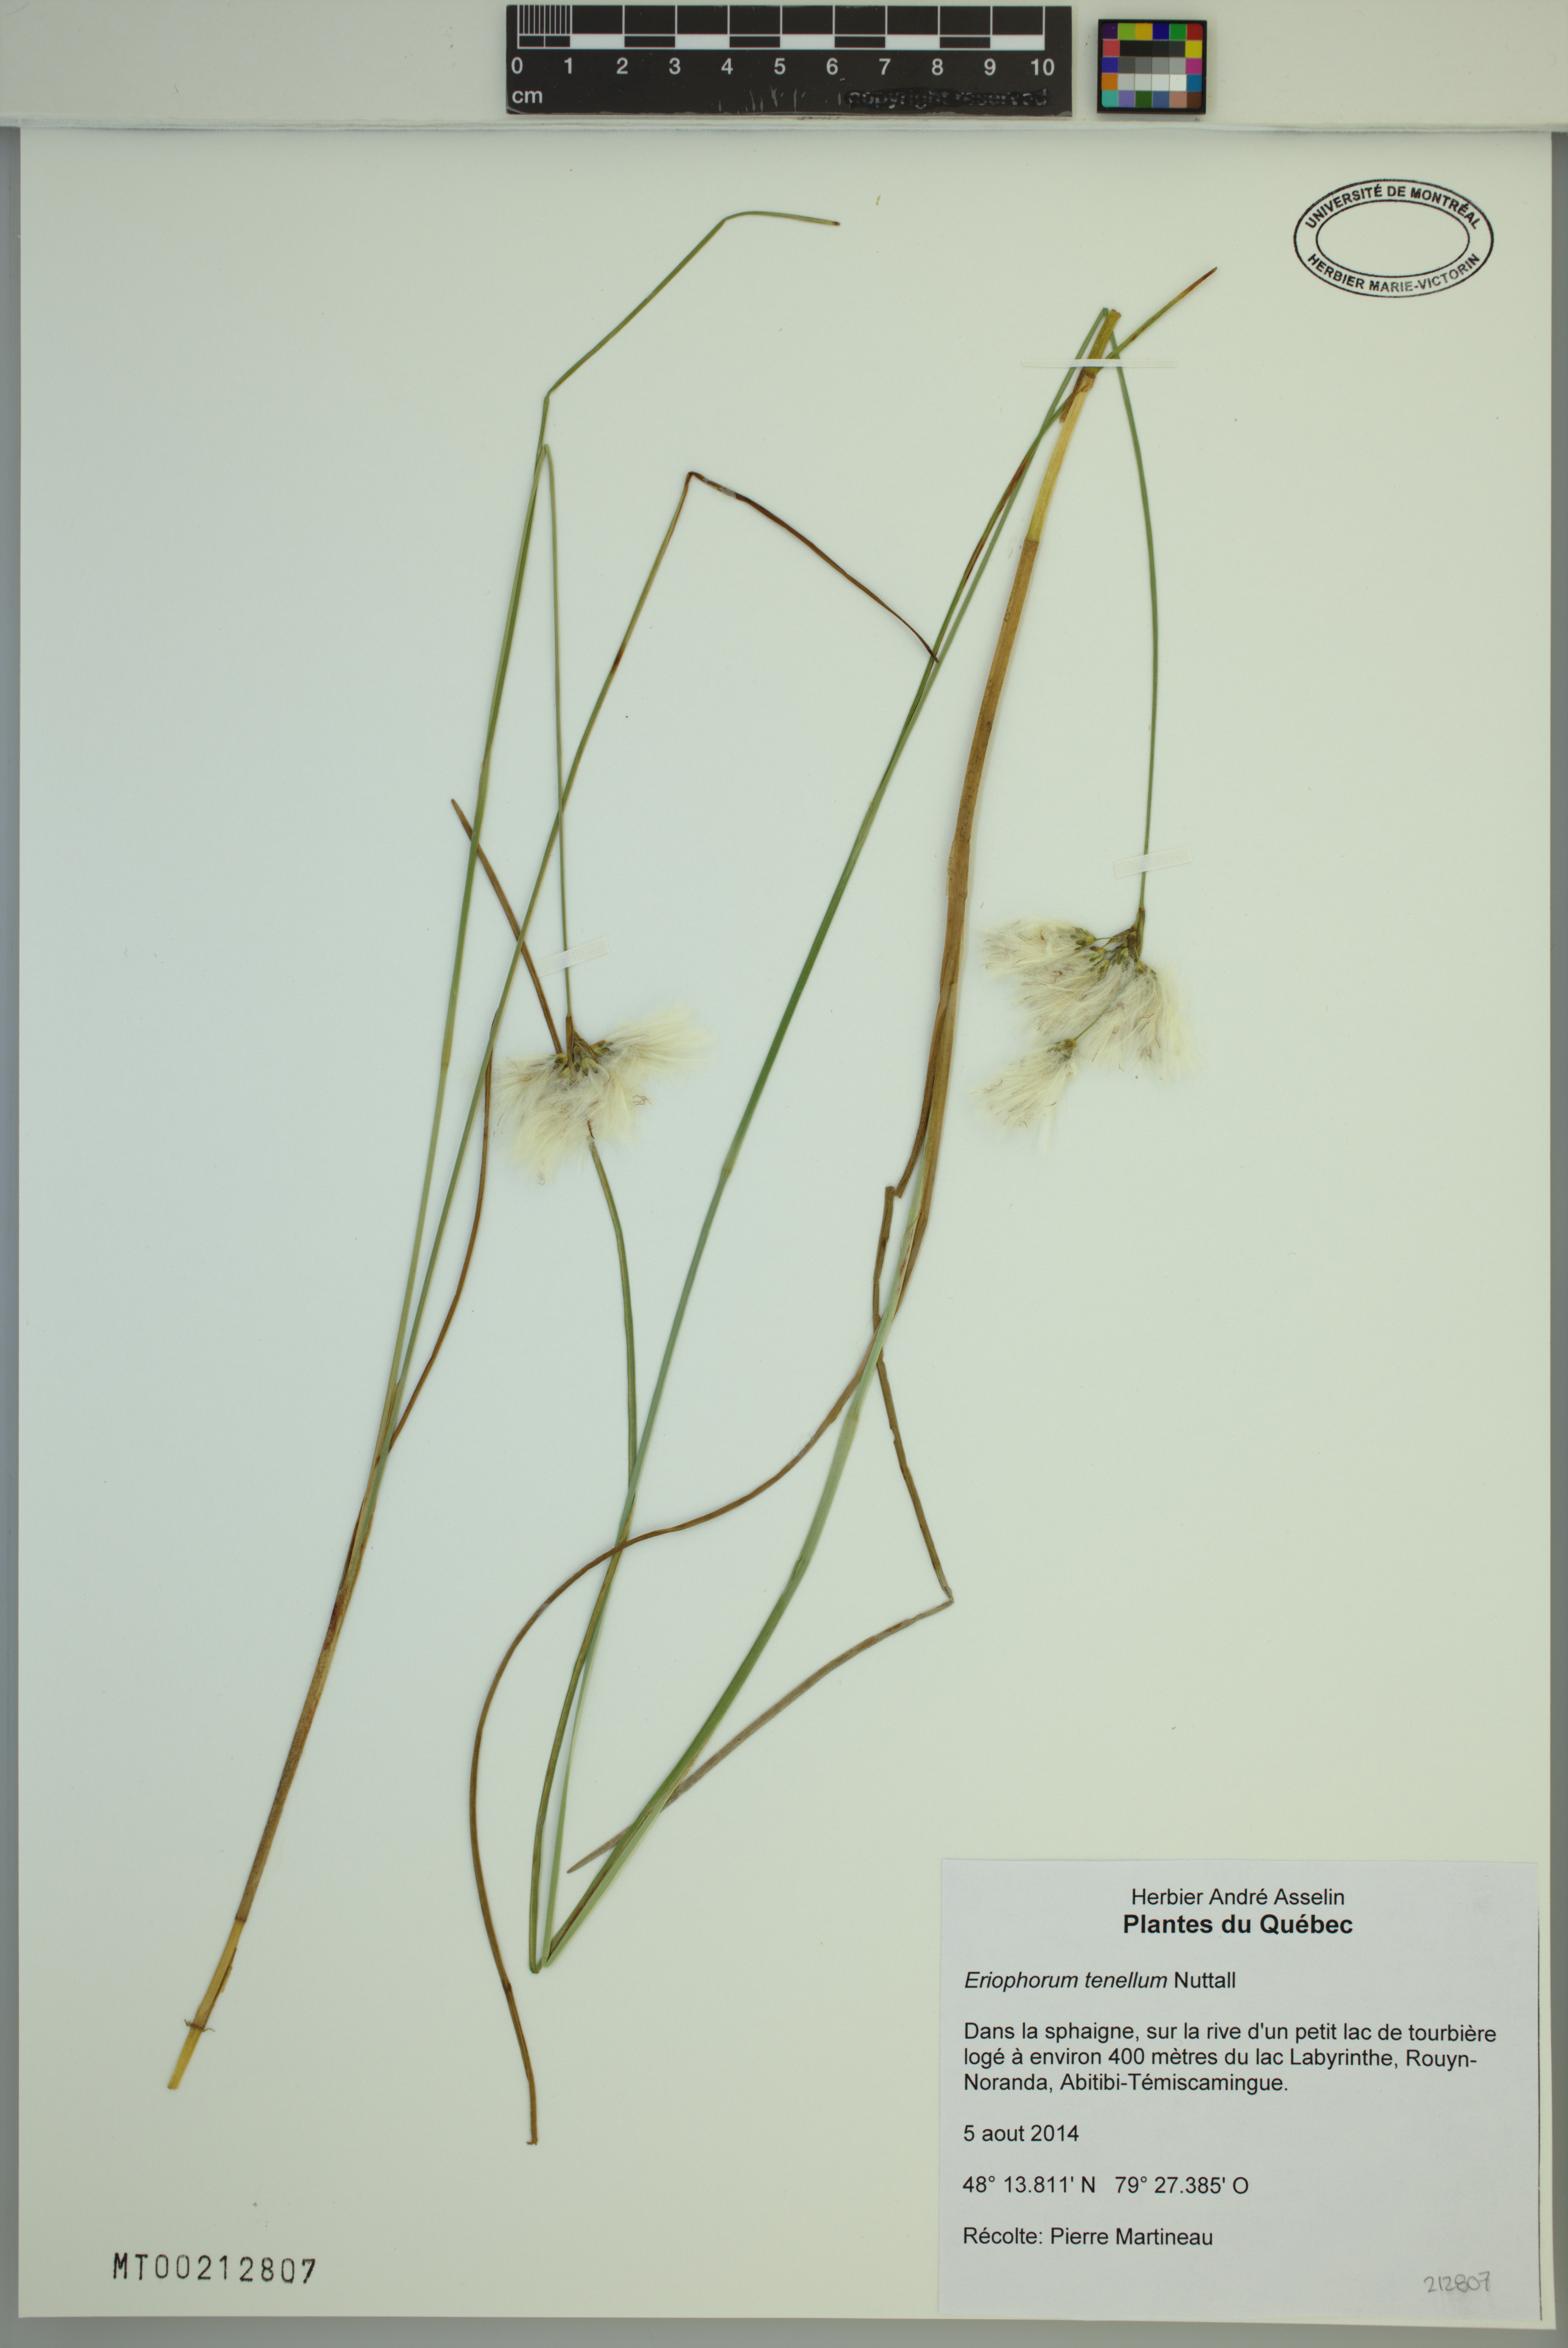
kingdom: Plantae
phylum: Tracheophyta
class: Liliopsida
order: Poales
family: Cyperaceae
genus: Eriophorum
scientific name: Eriophorum tenellum
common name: Few-nerved cottongrass
